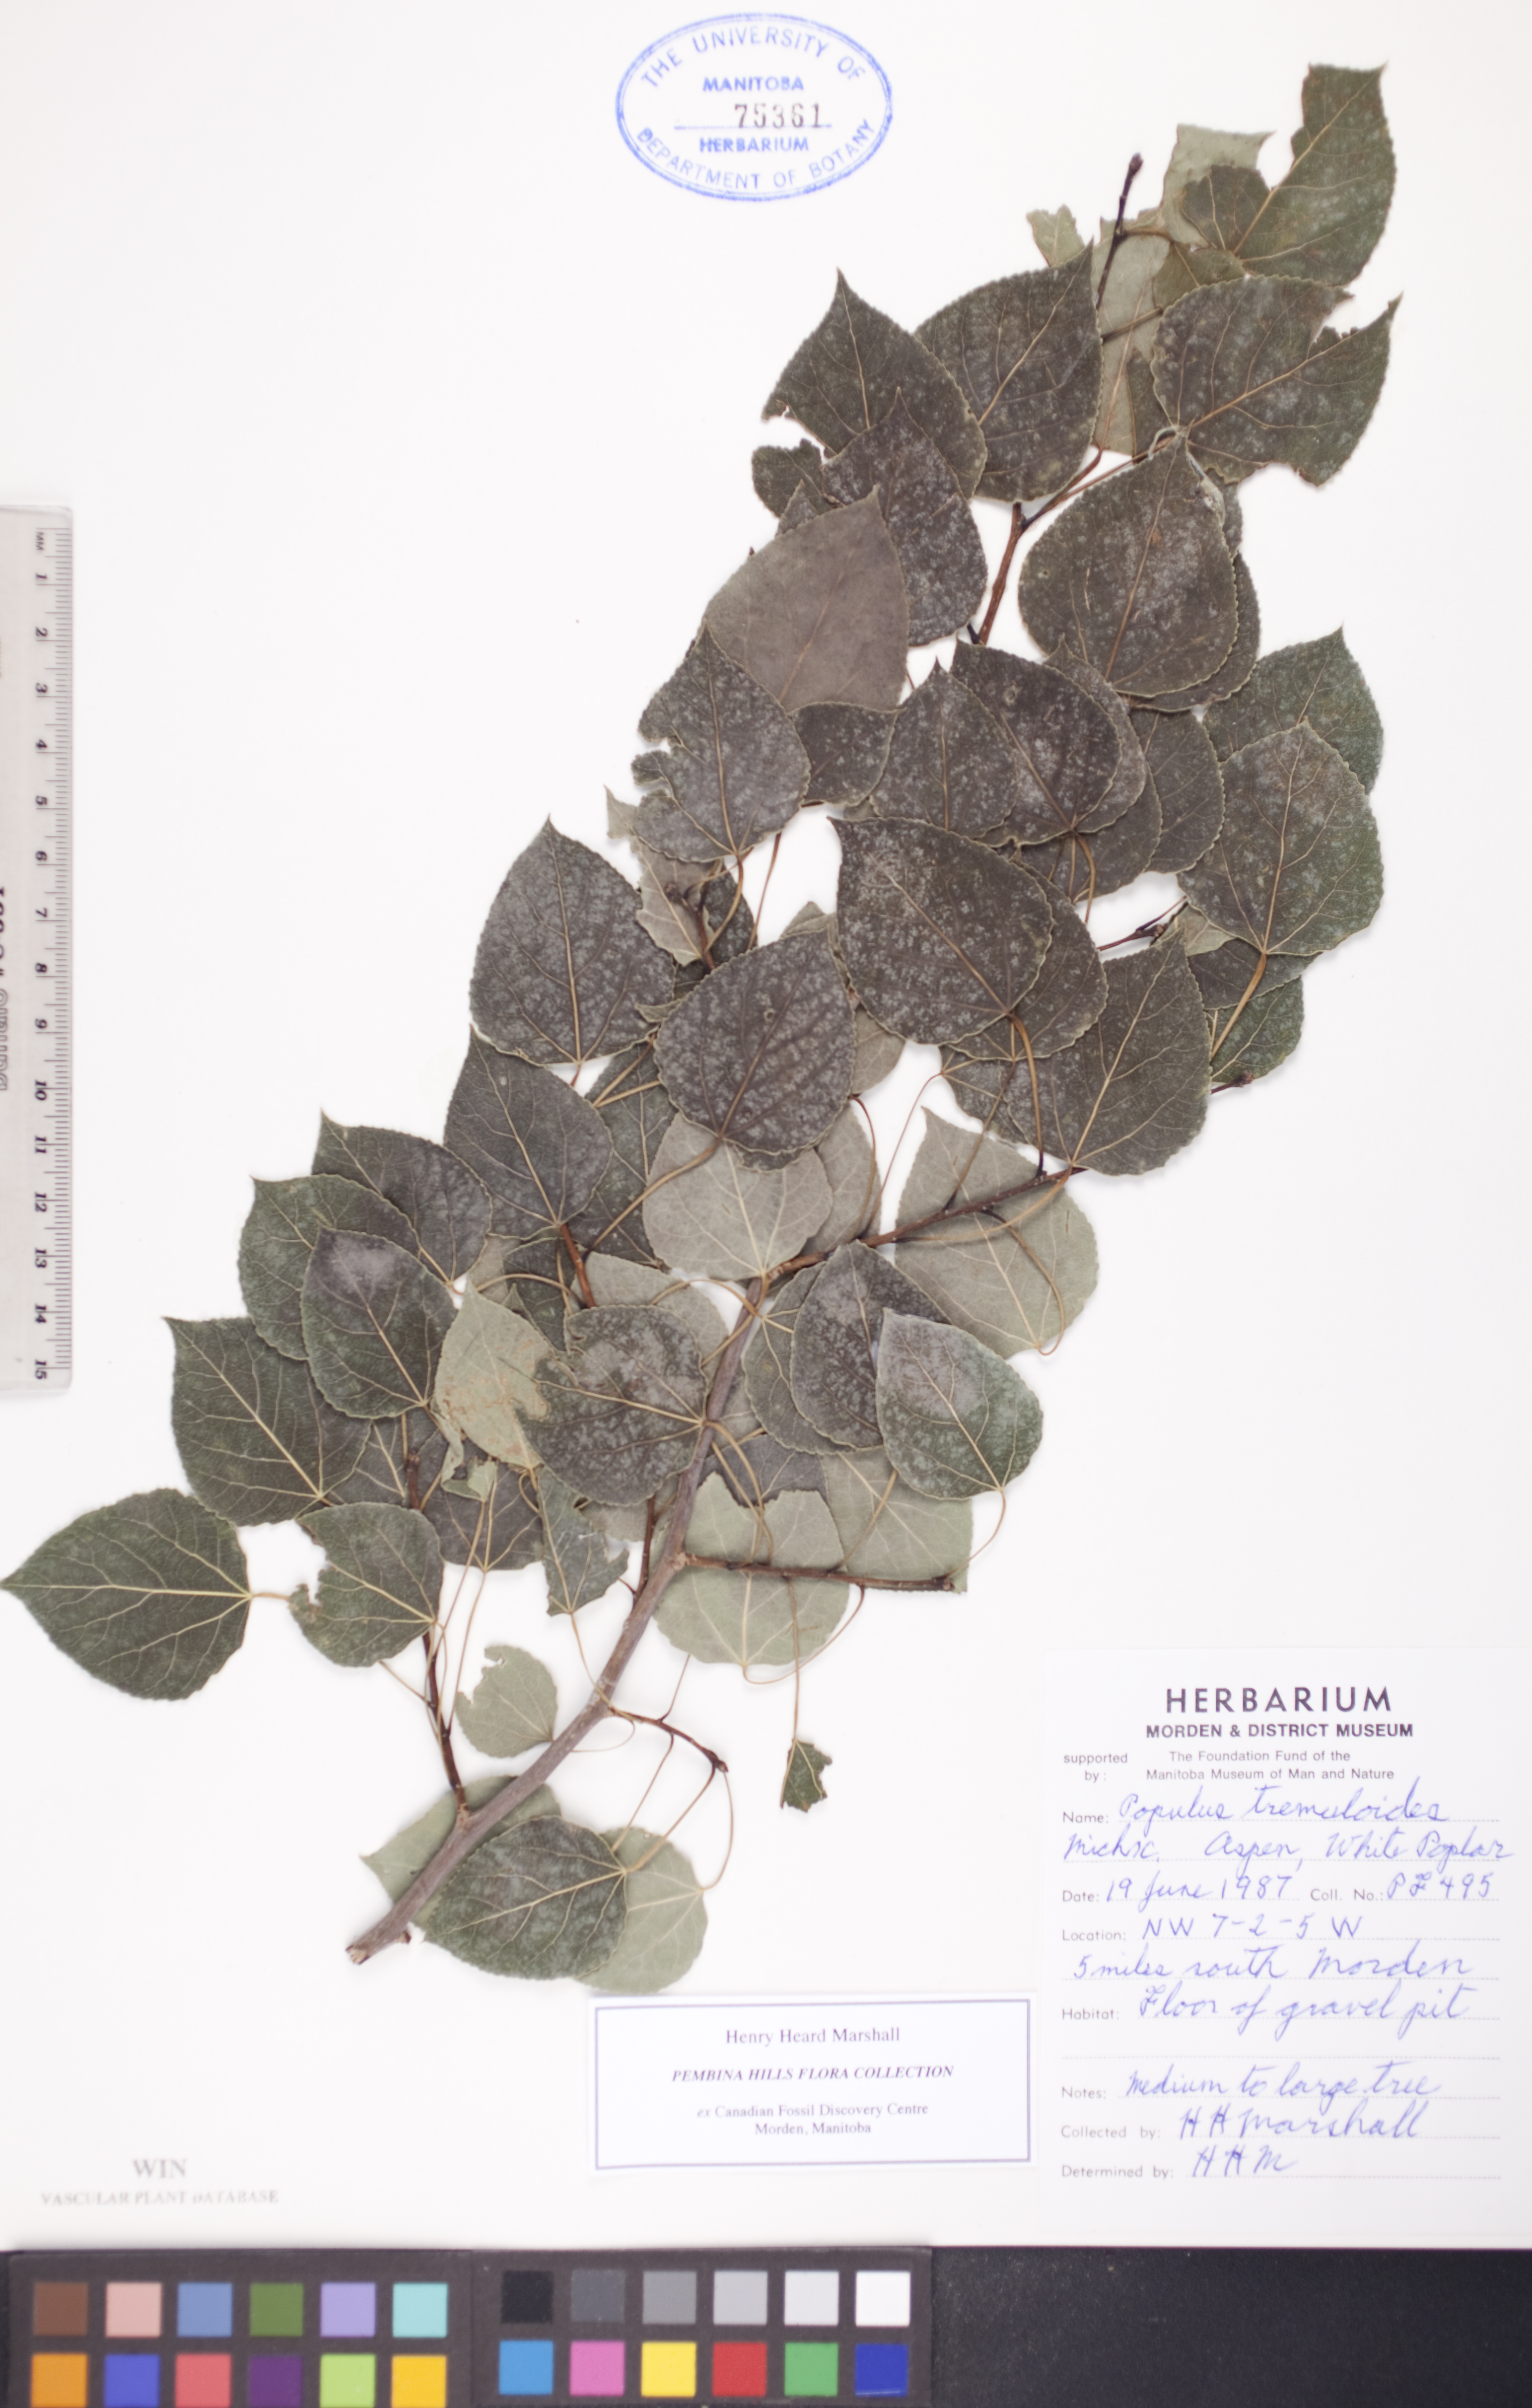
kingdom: Plantae
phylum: Tracheophyta
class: Magnoliopsida
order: Malpighiales
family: Salicaceae
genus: Populus
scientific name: Populus tremuloides
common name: Quaking aspen
